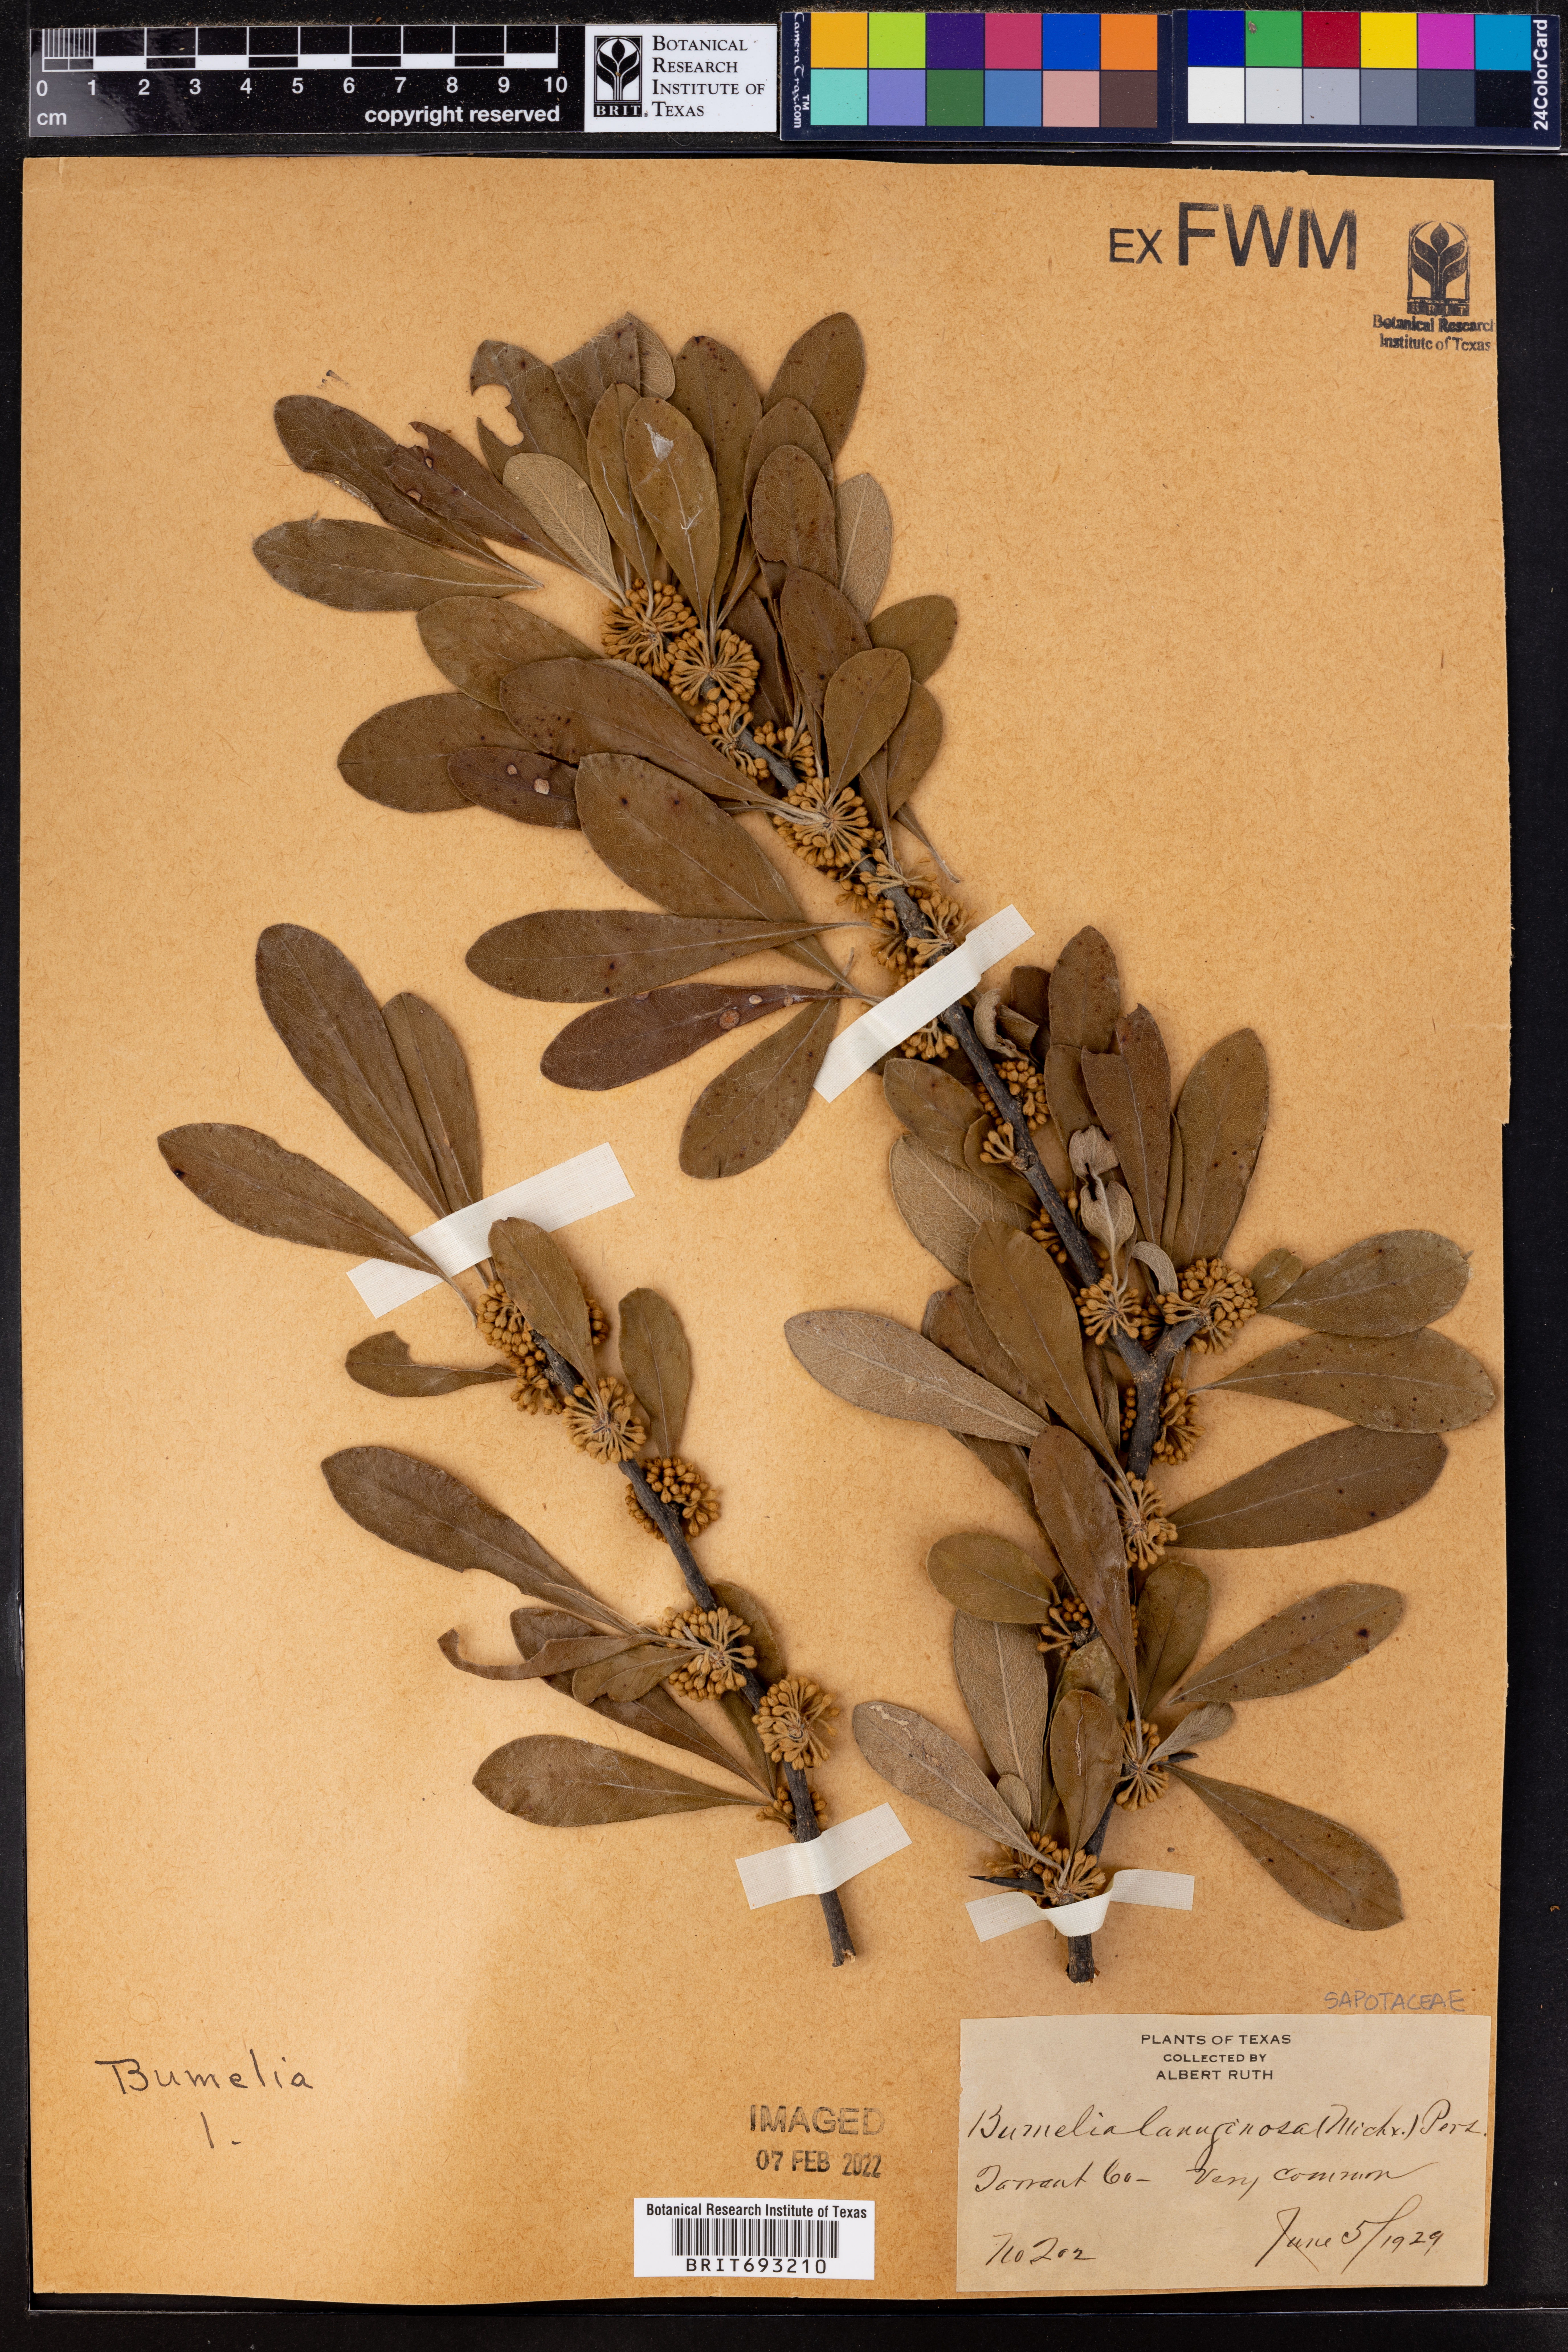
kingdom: Plantae
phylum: Tracheophyta
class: Magnoliopsida
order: Ericales
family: Sapotaceae
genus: Sideroxylon
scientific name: Sideroxylon lanuginosum
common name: Chittamwood
